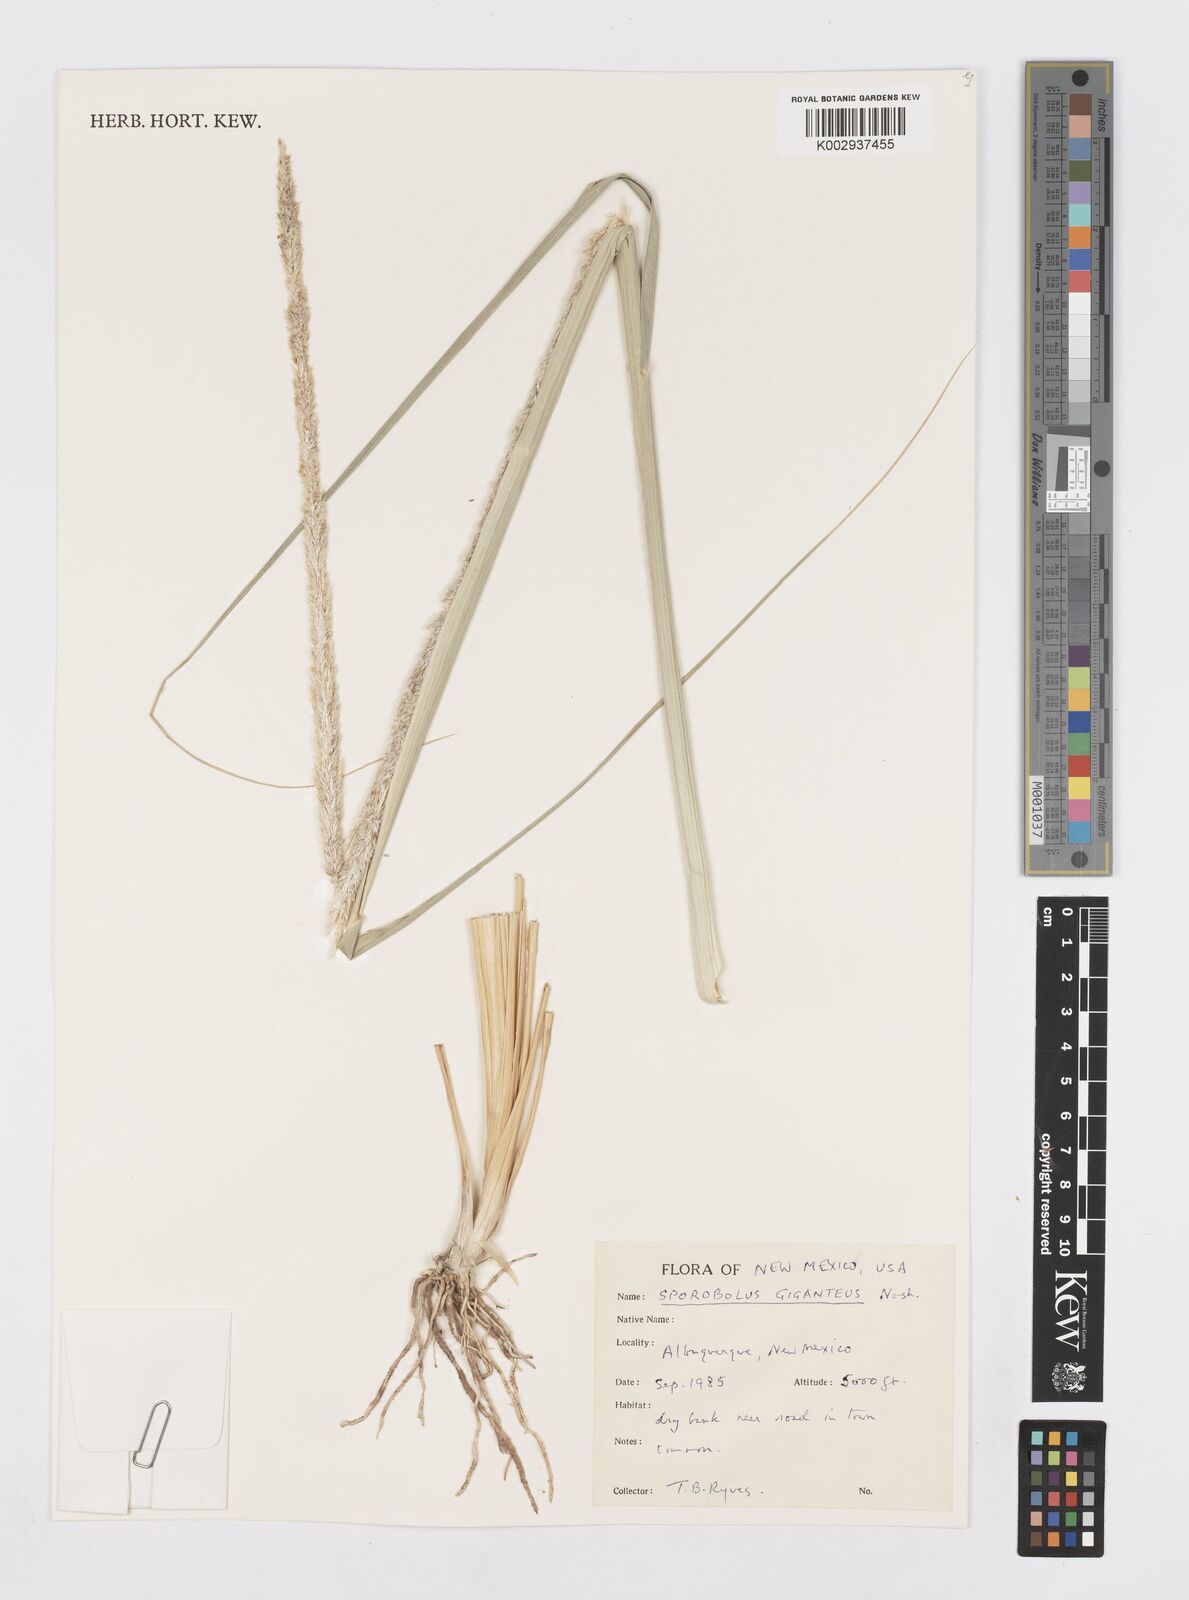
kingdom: Plantae
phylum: Tracheophyta
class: Liliopsida
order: Poales
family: Poaceae
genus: Sporobolus
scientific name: Sporobolus giganteus
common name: Giant dropseed
